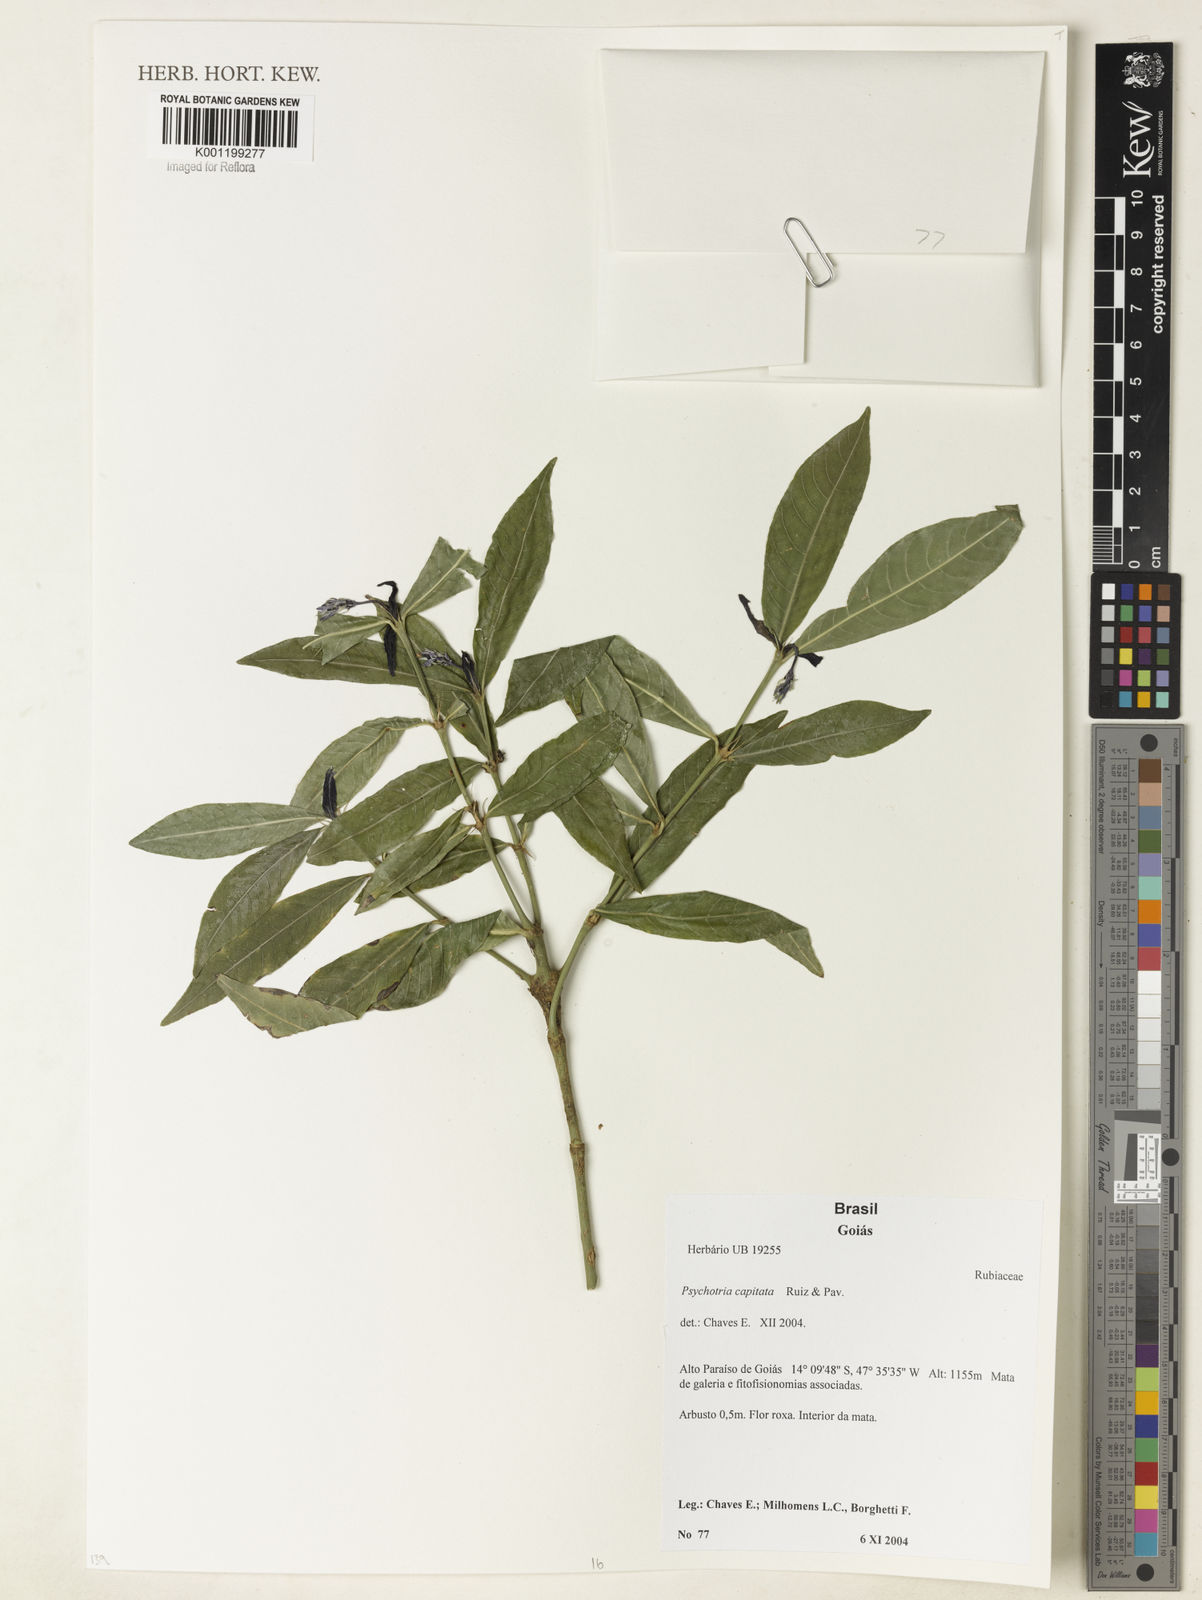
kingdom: Plantae
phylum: Tracheophyta
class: Magnoliopsida
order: Gentianales
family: Rubiaceae
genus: Palicourea
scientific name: Palicourea violacea
